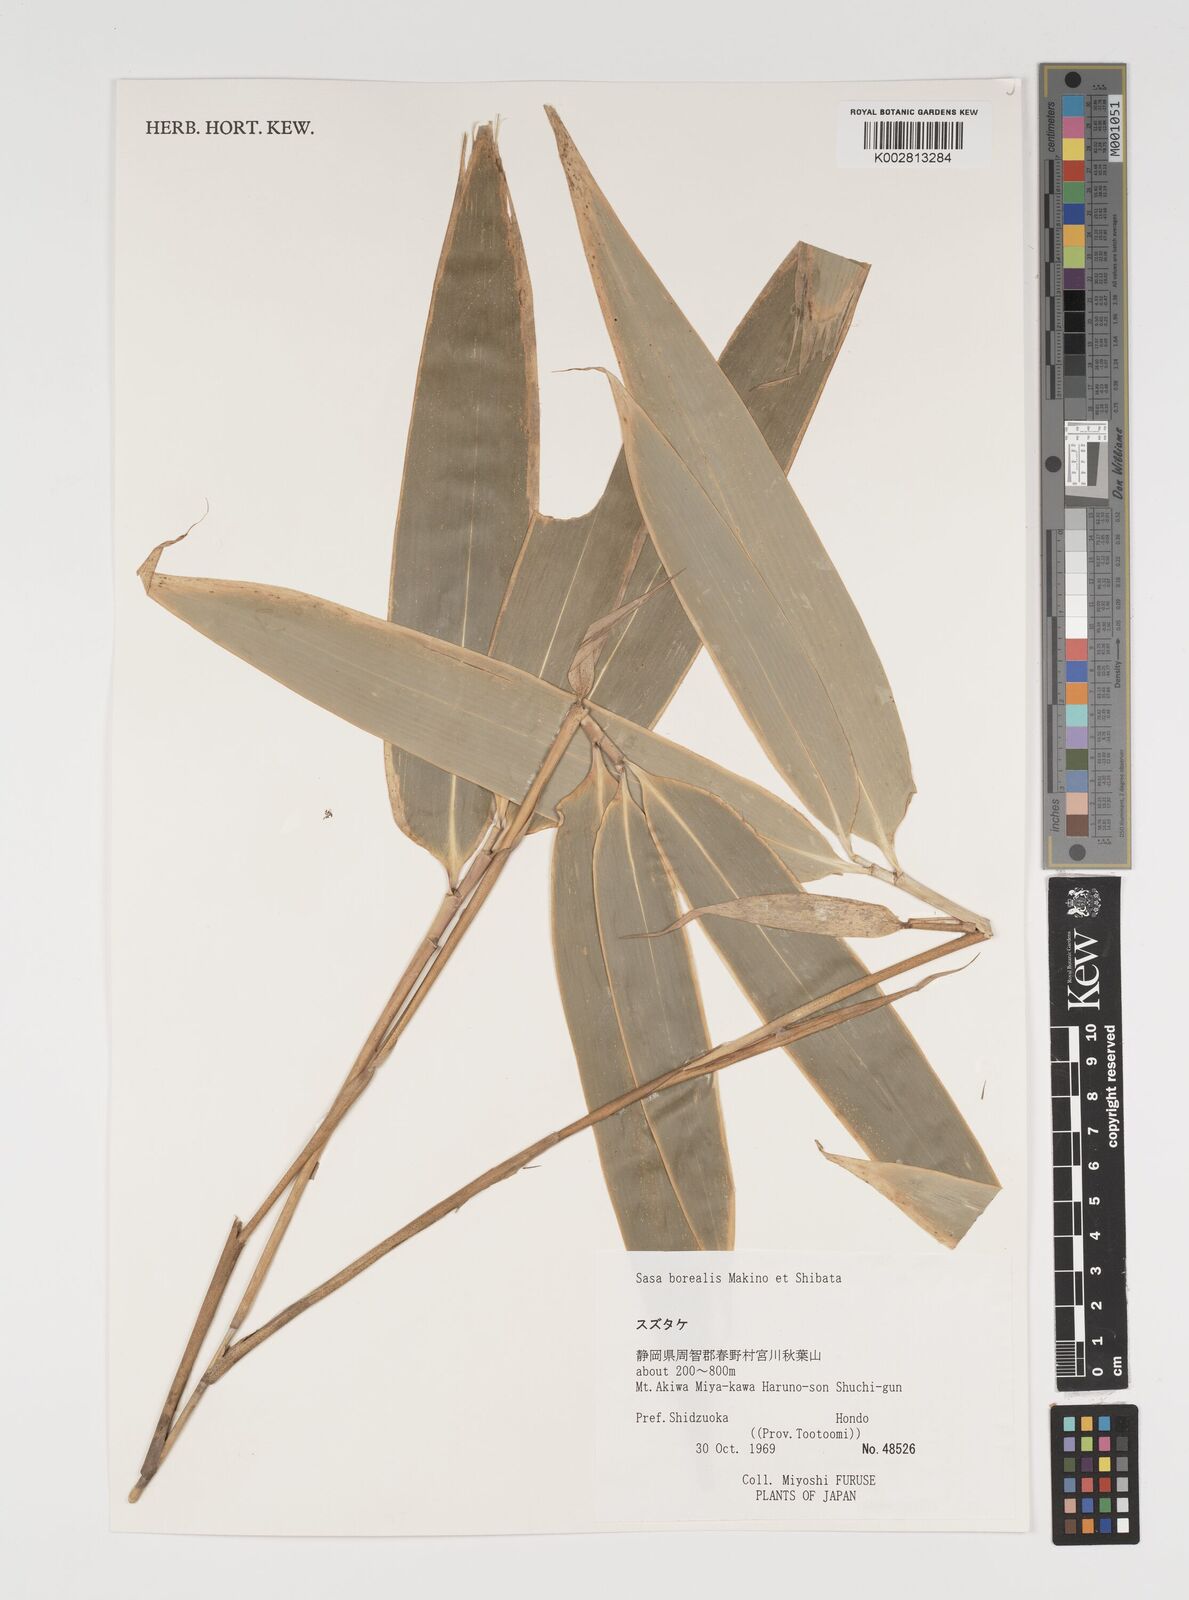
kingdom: Plantae
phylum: Tracheophyta
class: Liliopsida
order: Poales
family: Poaceae
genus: Sasamorpha
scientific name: Sasamorpha borealis
